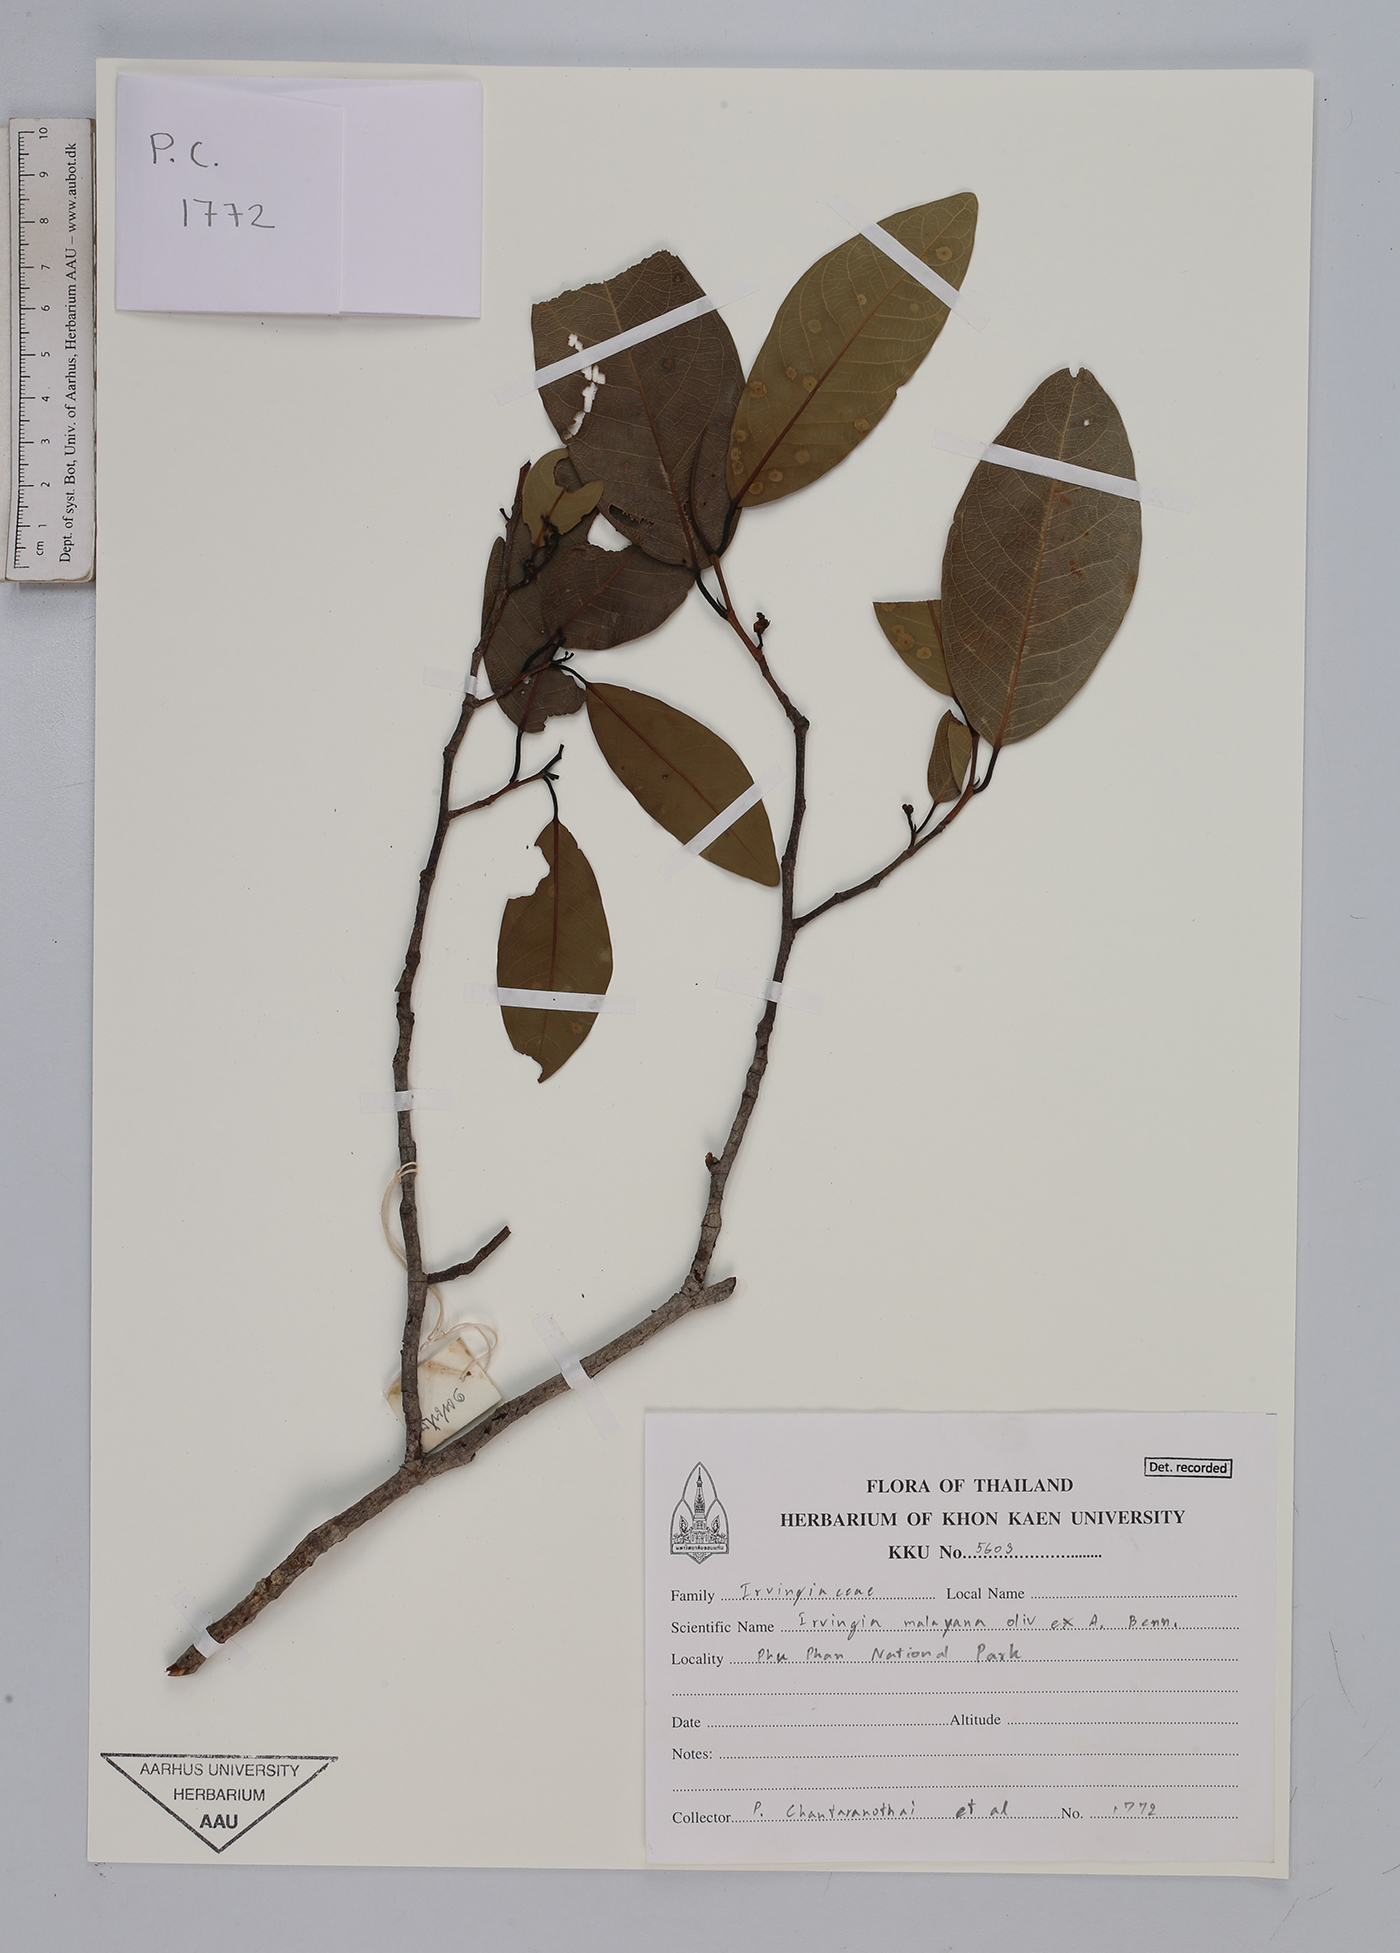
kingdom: Plantae
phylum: Tracheophyta
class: Magnoliopsida
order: Malpighiales
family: Irvingiaceae
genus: Irvingia
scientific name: Irvingia malayana
